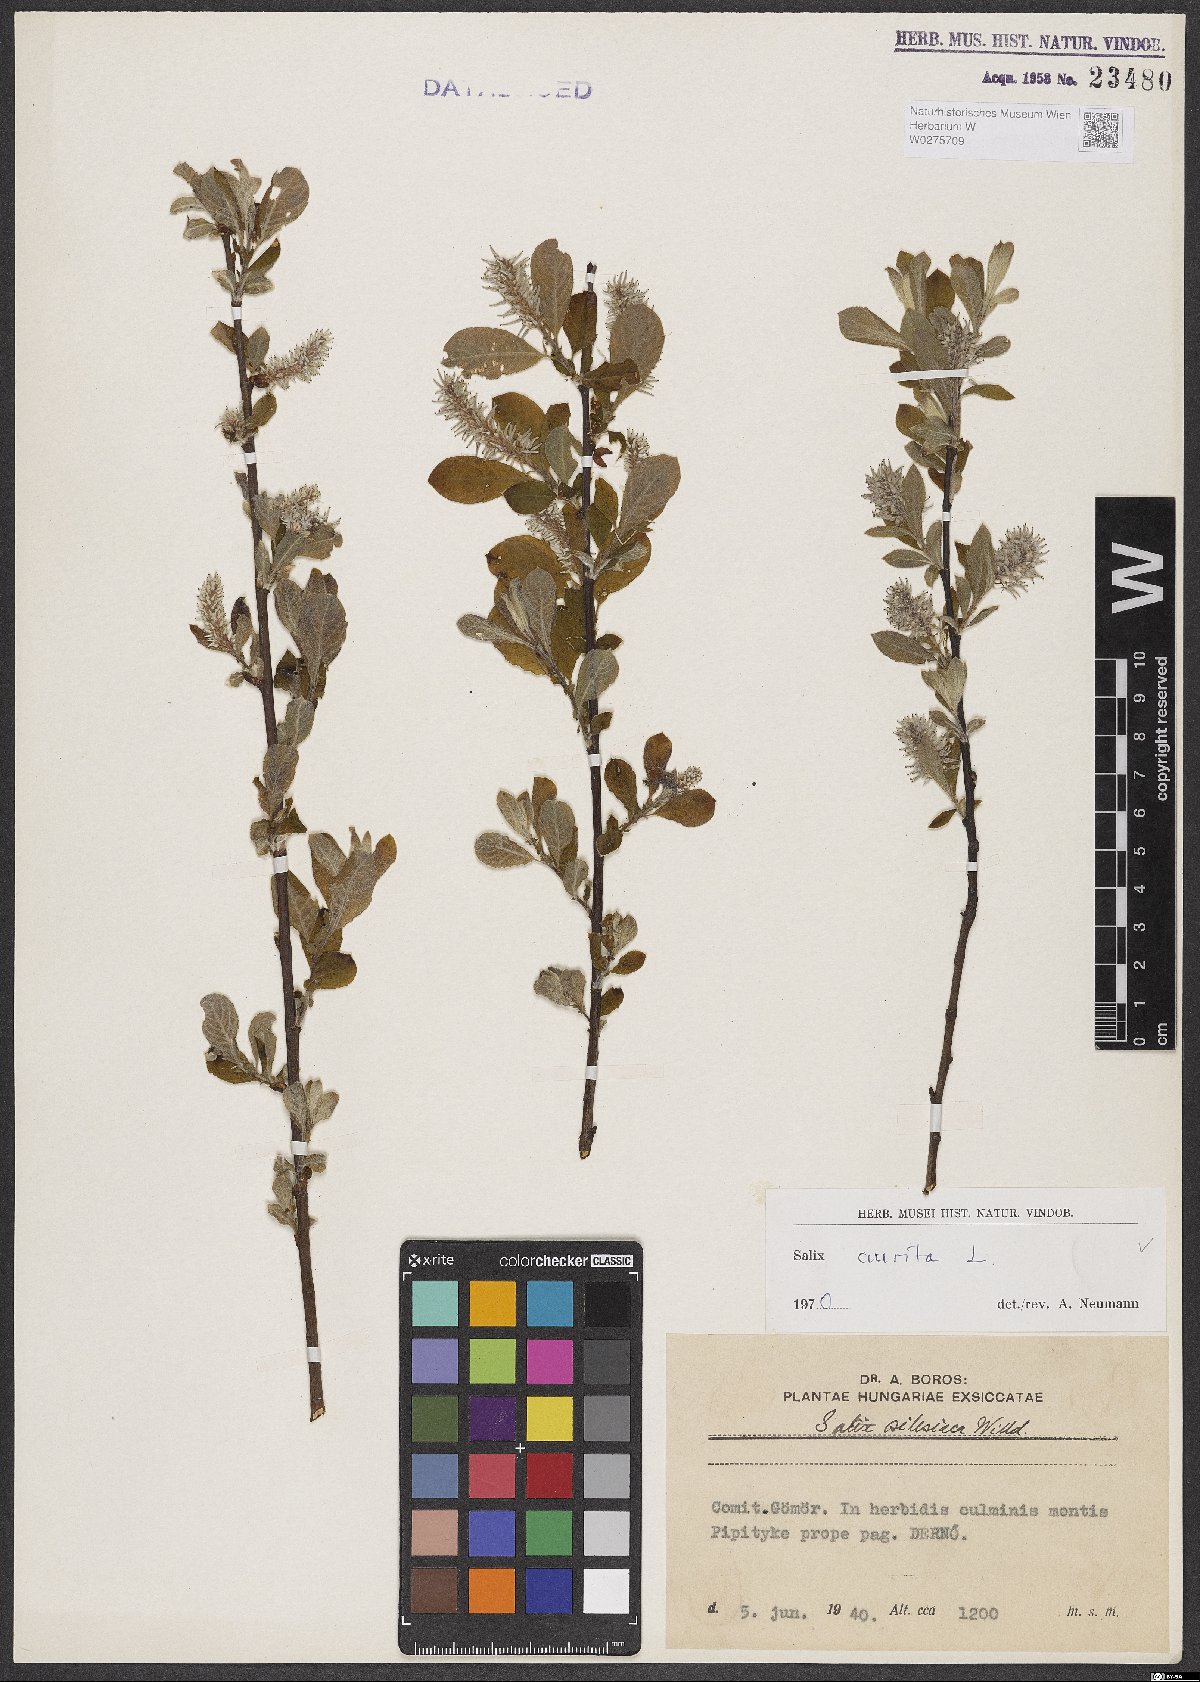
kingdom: Plantae
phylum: Tracheophyta
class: Magnoliopsida
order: Malpighiales
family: Salicaceae
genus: Salix
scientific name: Salix aurita
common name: Eared willow
